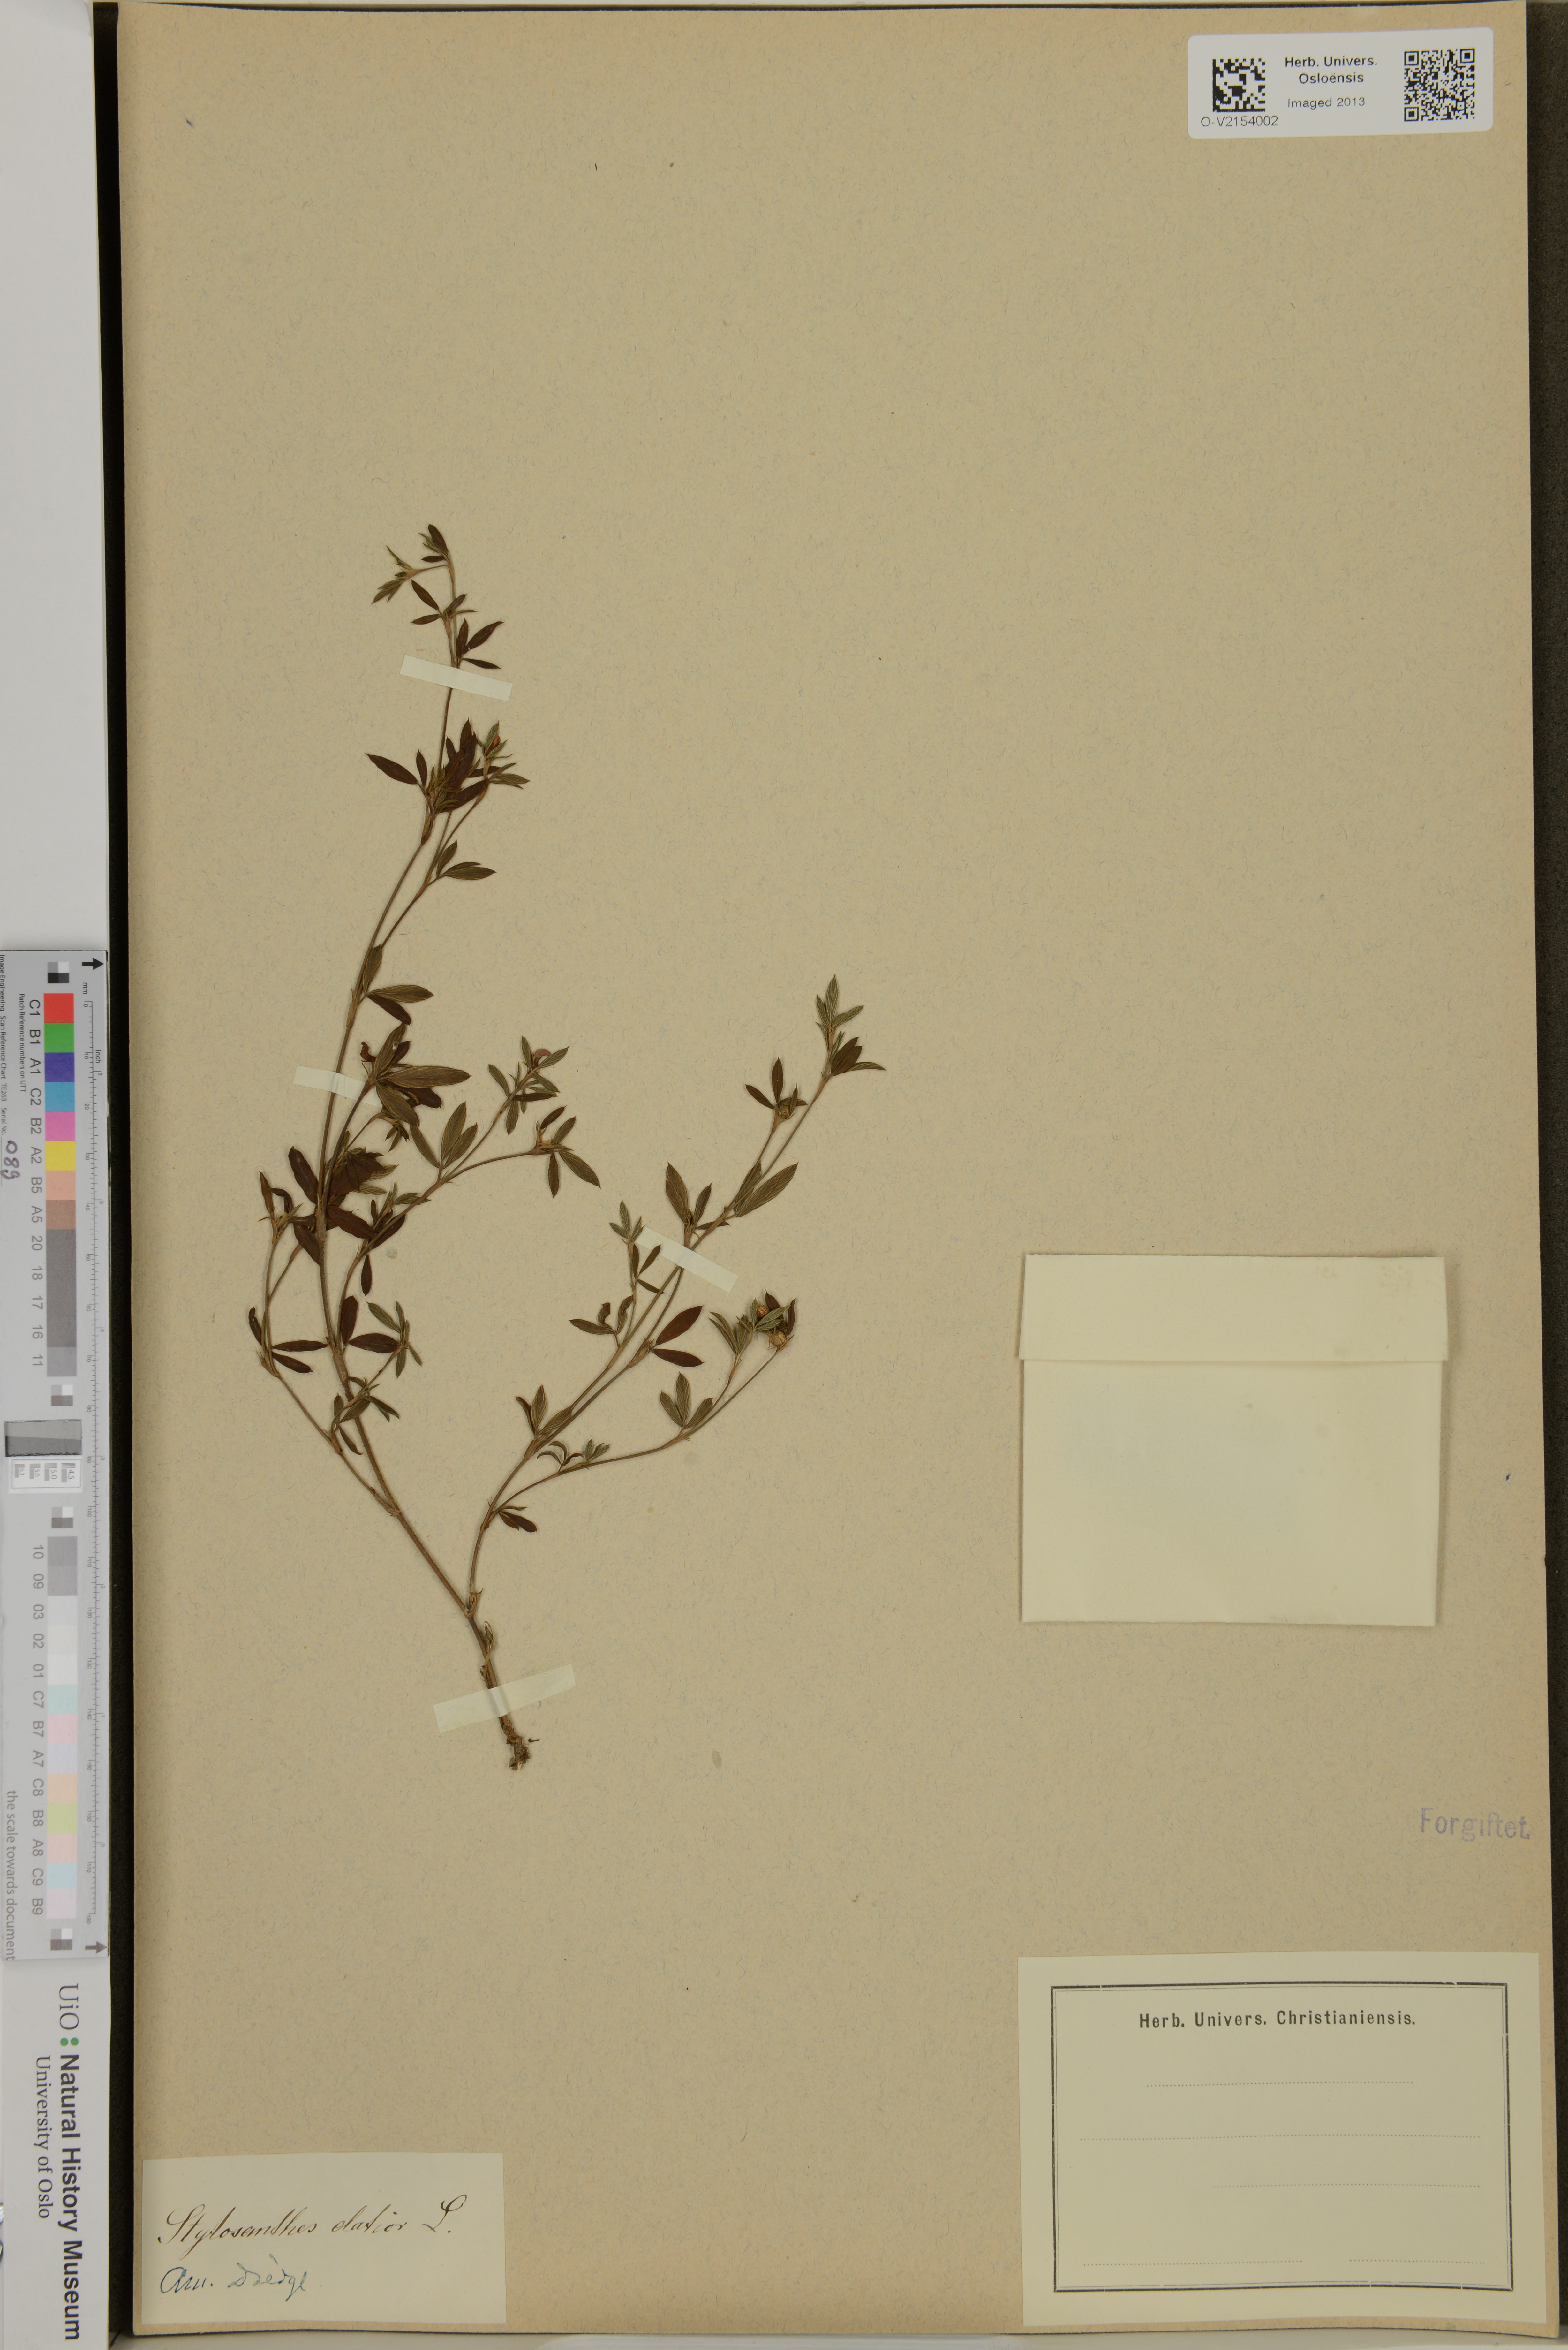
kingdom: Plantae
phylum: Tracheophyta
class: Magnoliopsida
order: Fabales
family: Fabaceae
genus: Stylosanthes
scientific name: Stylosanthes biflora
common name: Two-flower pencil-flower
